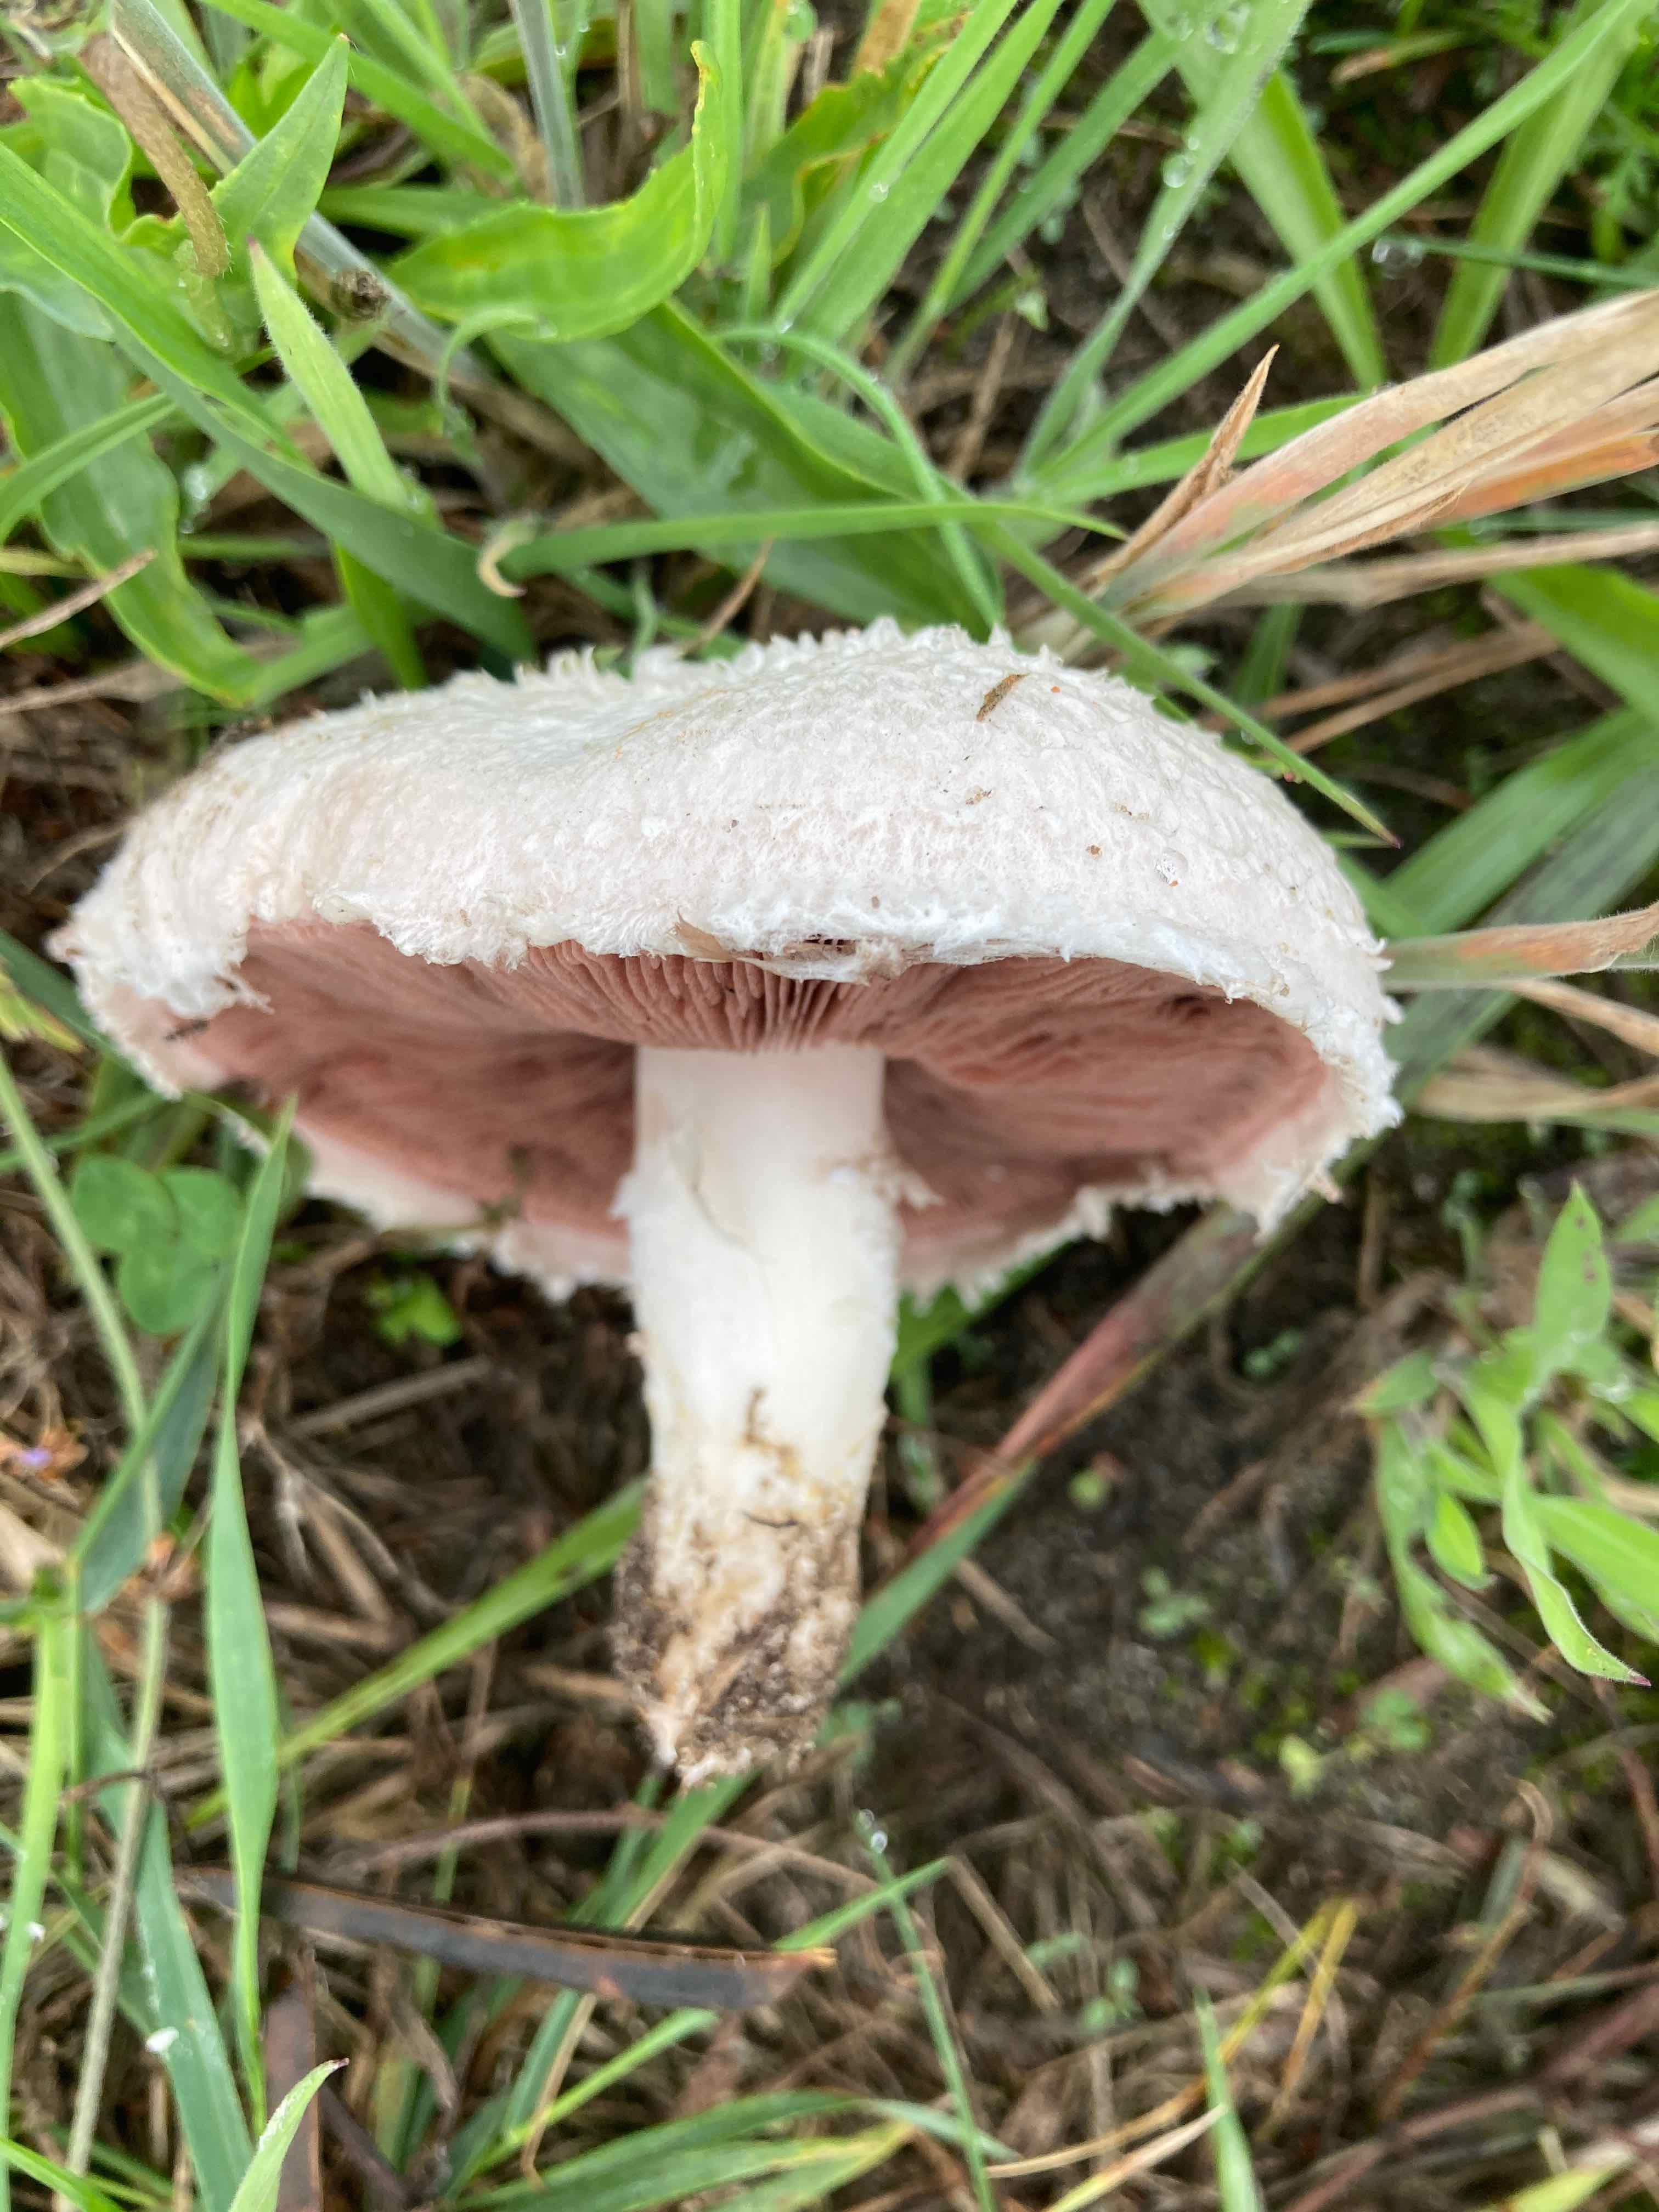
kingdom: Fungi
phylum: Basidiomycota
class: Agaricomycetes
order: Agaricales
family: Agaricaceae
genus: Agaricus
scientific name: Agaricus campestris
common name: mark-champignon
